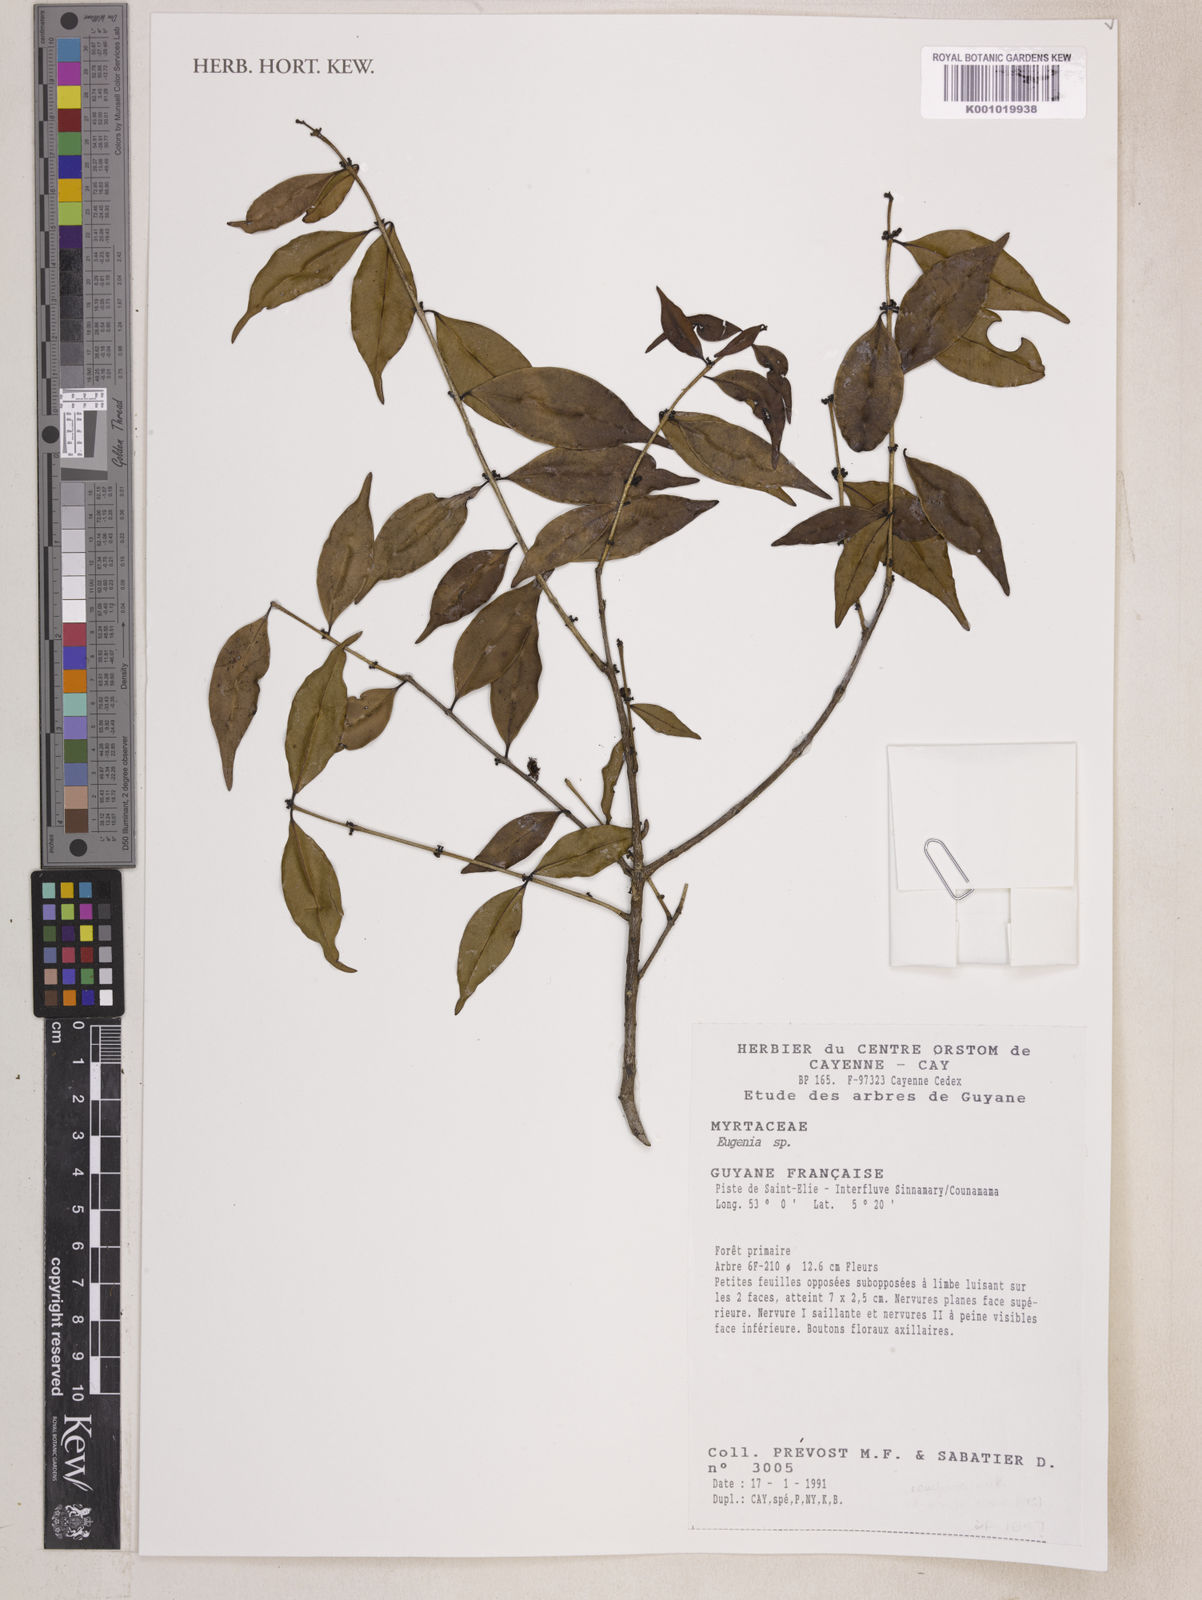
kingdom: Plantae
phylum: Tracheophyta
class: Magnoliopsida
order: Myrtales
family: Myrtaceae
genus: Myrciaria
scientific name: Myrciaria floribunda
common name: Guavaberry
